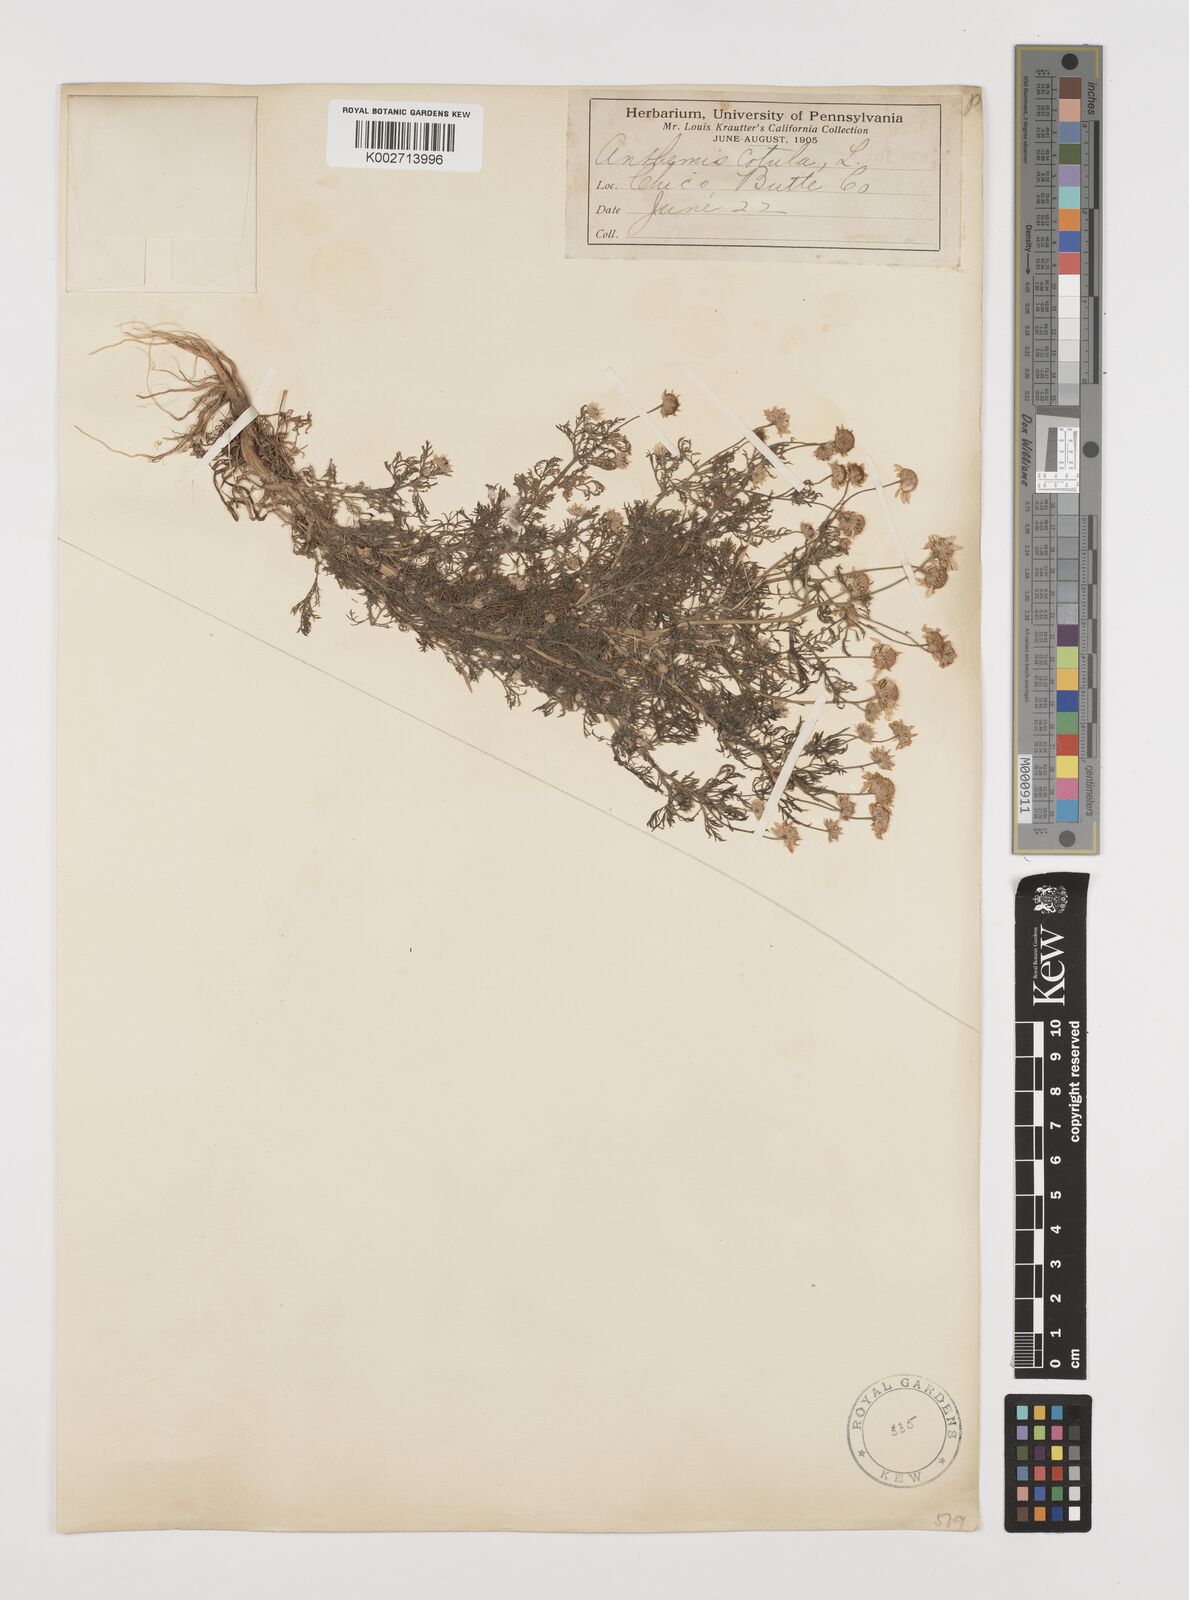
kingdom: Plantae
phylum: Tracheophyta
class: Magnoliopsida
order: Asterales
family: Asteraceae
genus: Anthemis
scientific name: Anthemis cotula
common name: Stinking chamomile
